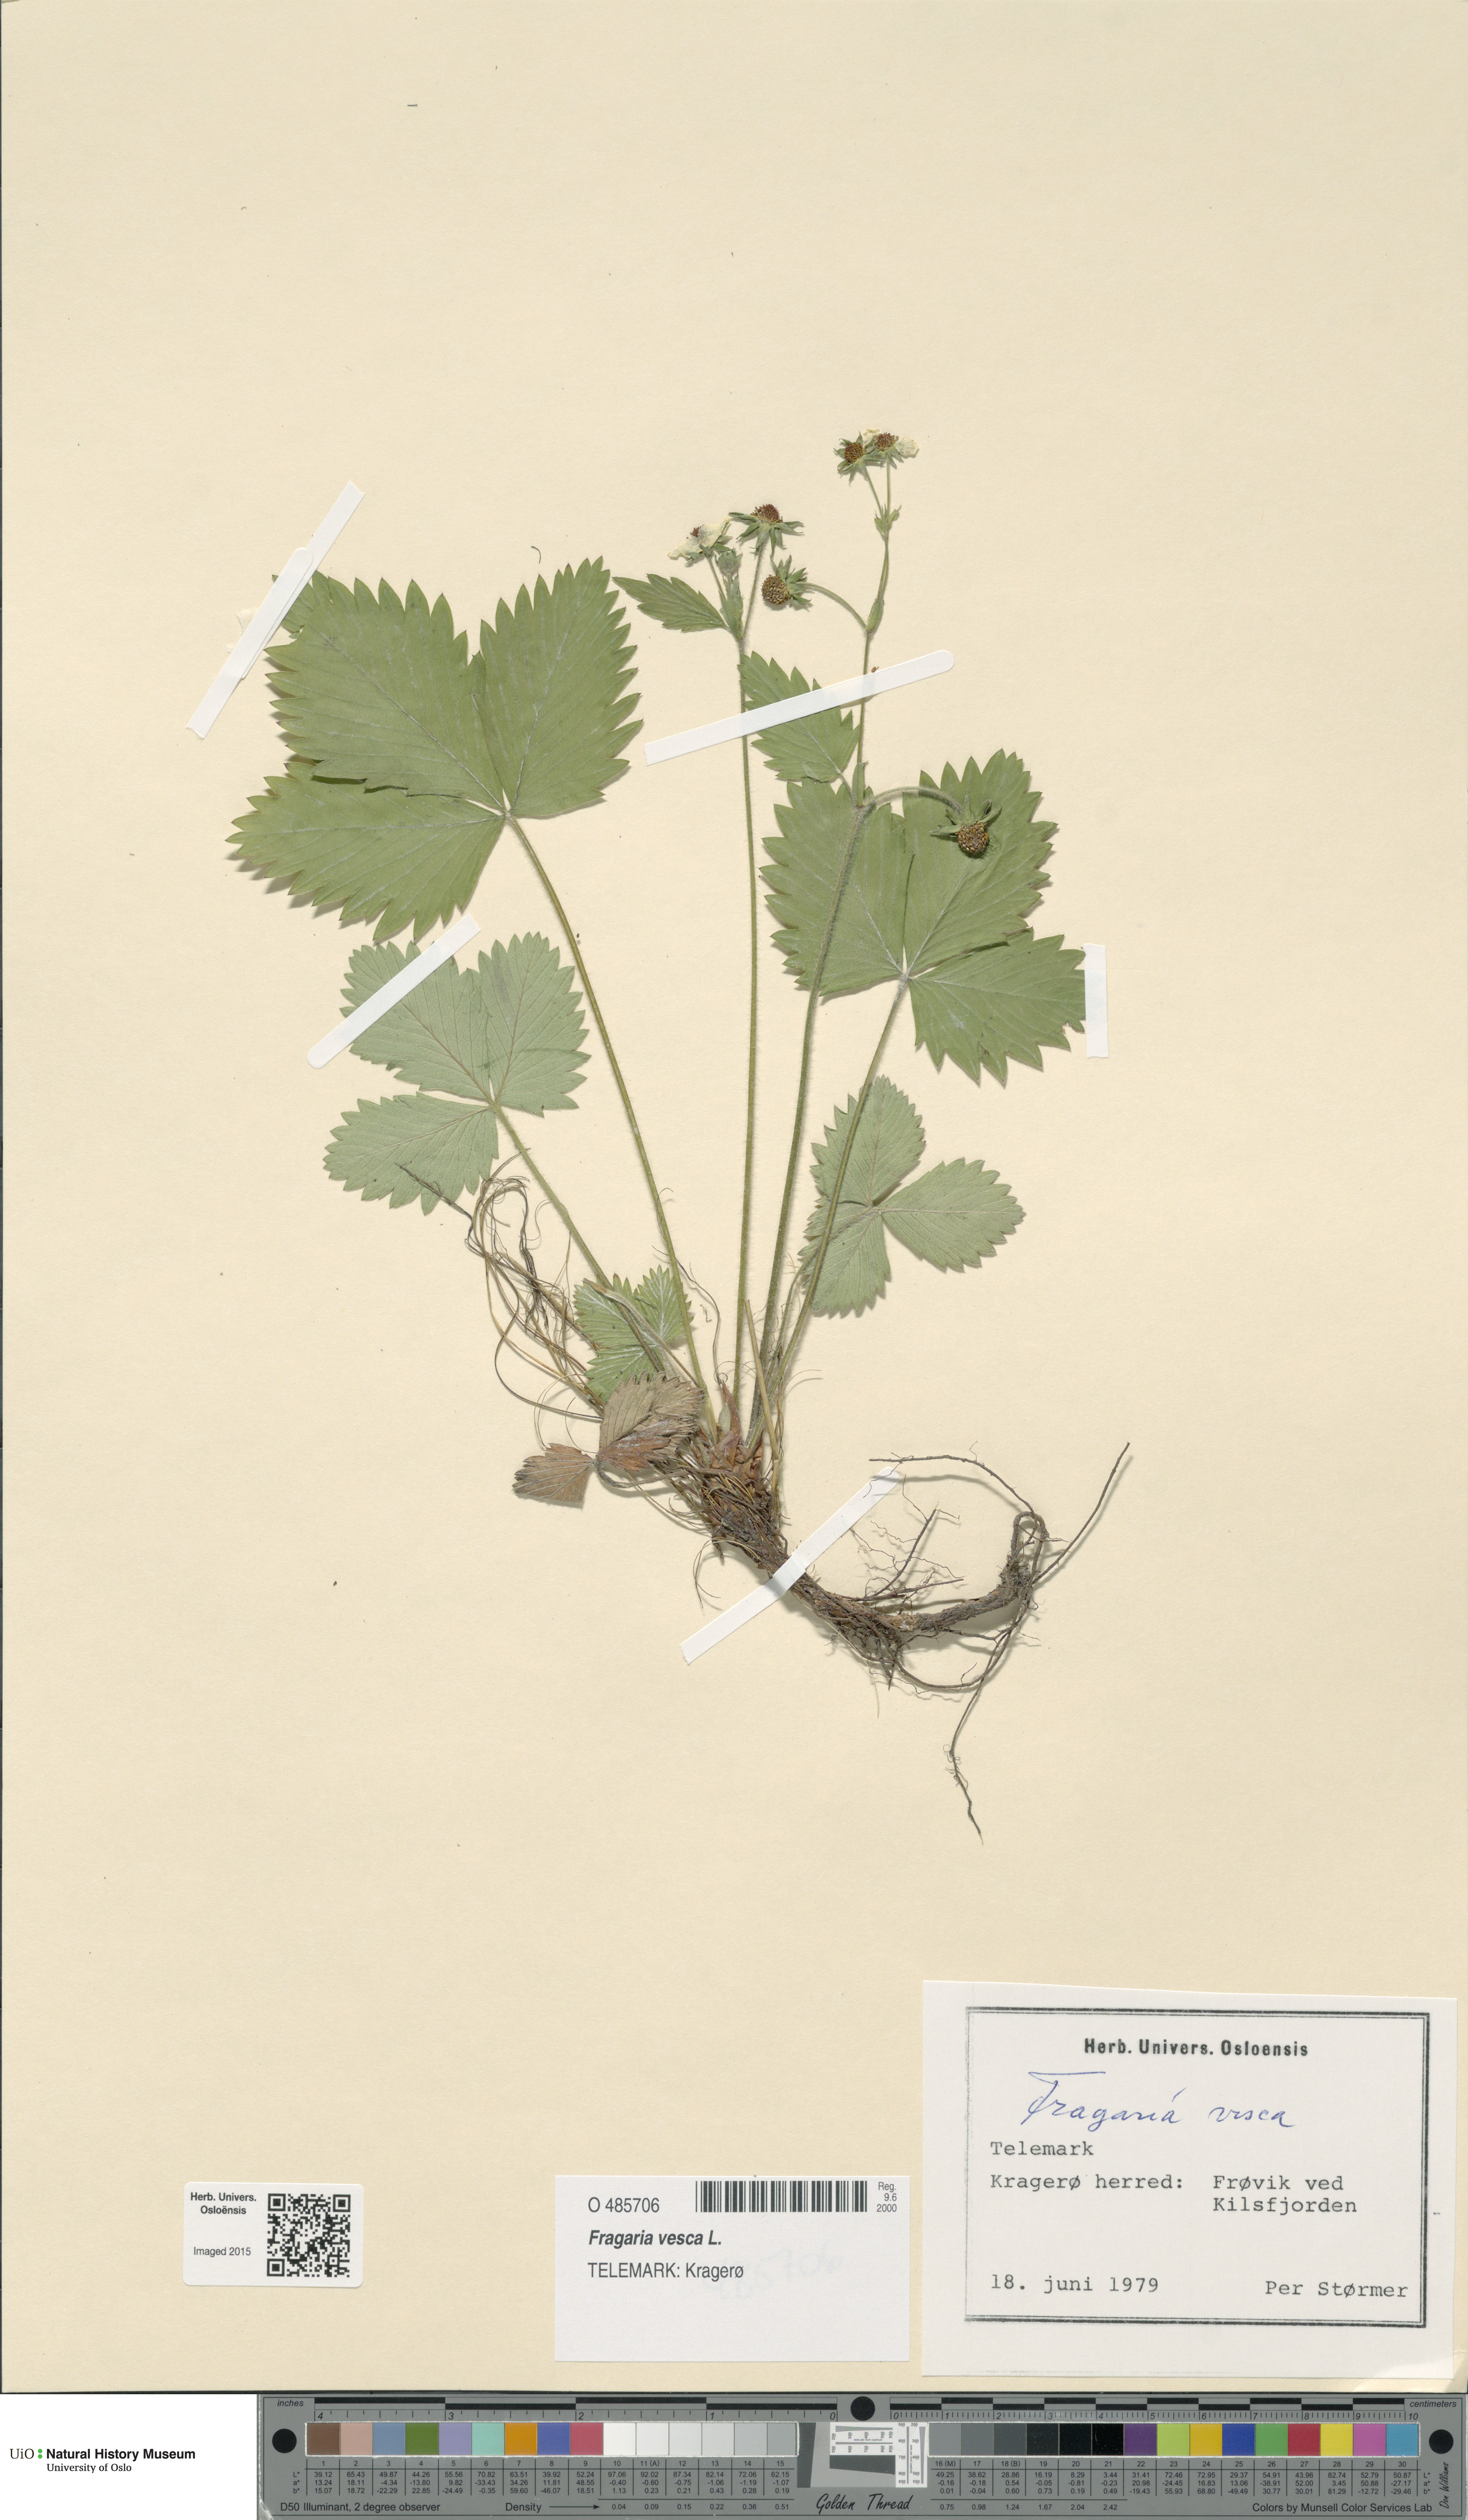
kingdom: Plantae
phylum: Tracheophyta
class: Magnoliopsida
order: Rosales
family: Rosaceae
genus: Fragaria
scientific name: Fragaria vesca
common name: Wild strawberry
